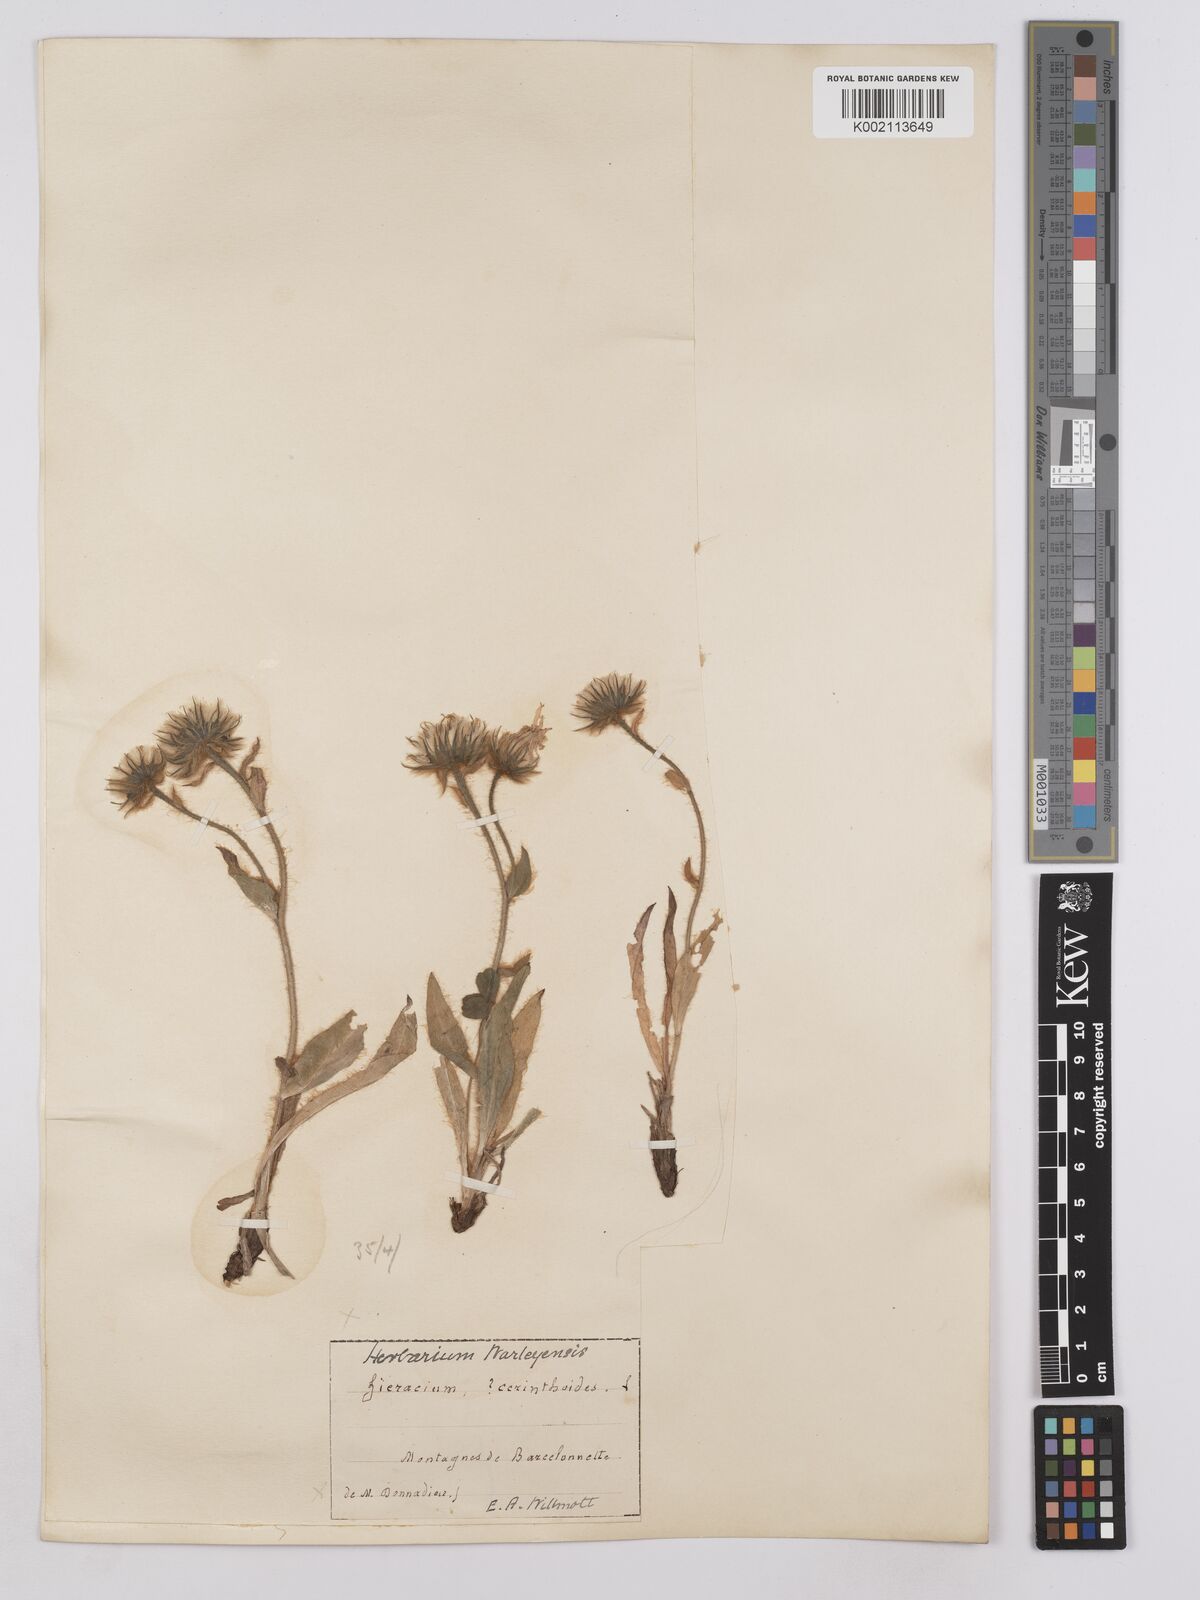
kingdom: Plantae
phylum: Tracheophyta
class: Magnoliopsida
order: Asterales
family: Asteraceae
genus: Hieracium
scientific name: Hieracium villosum
